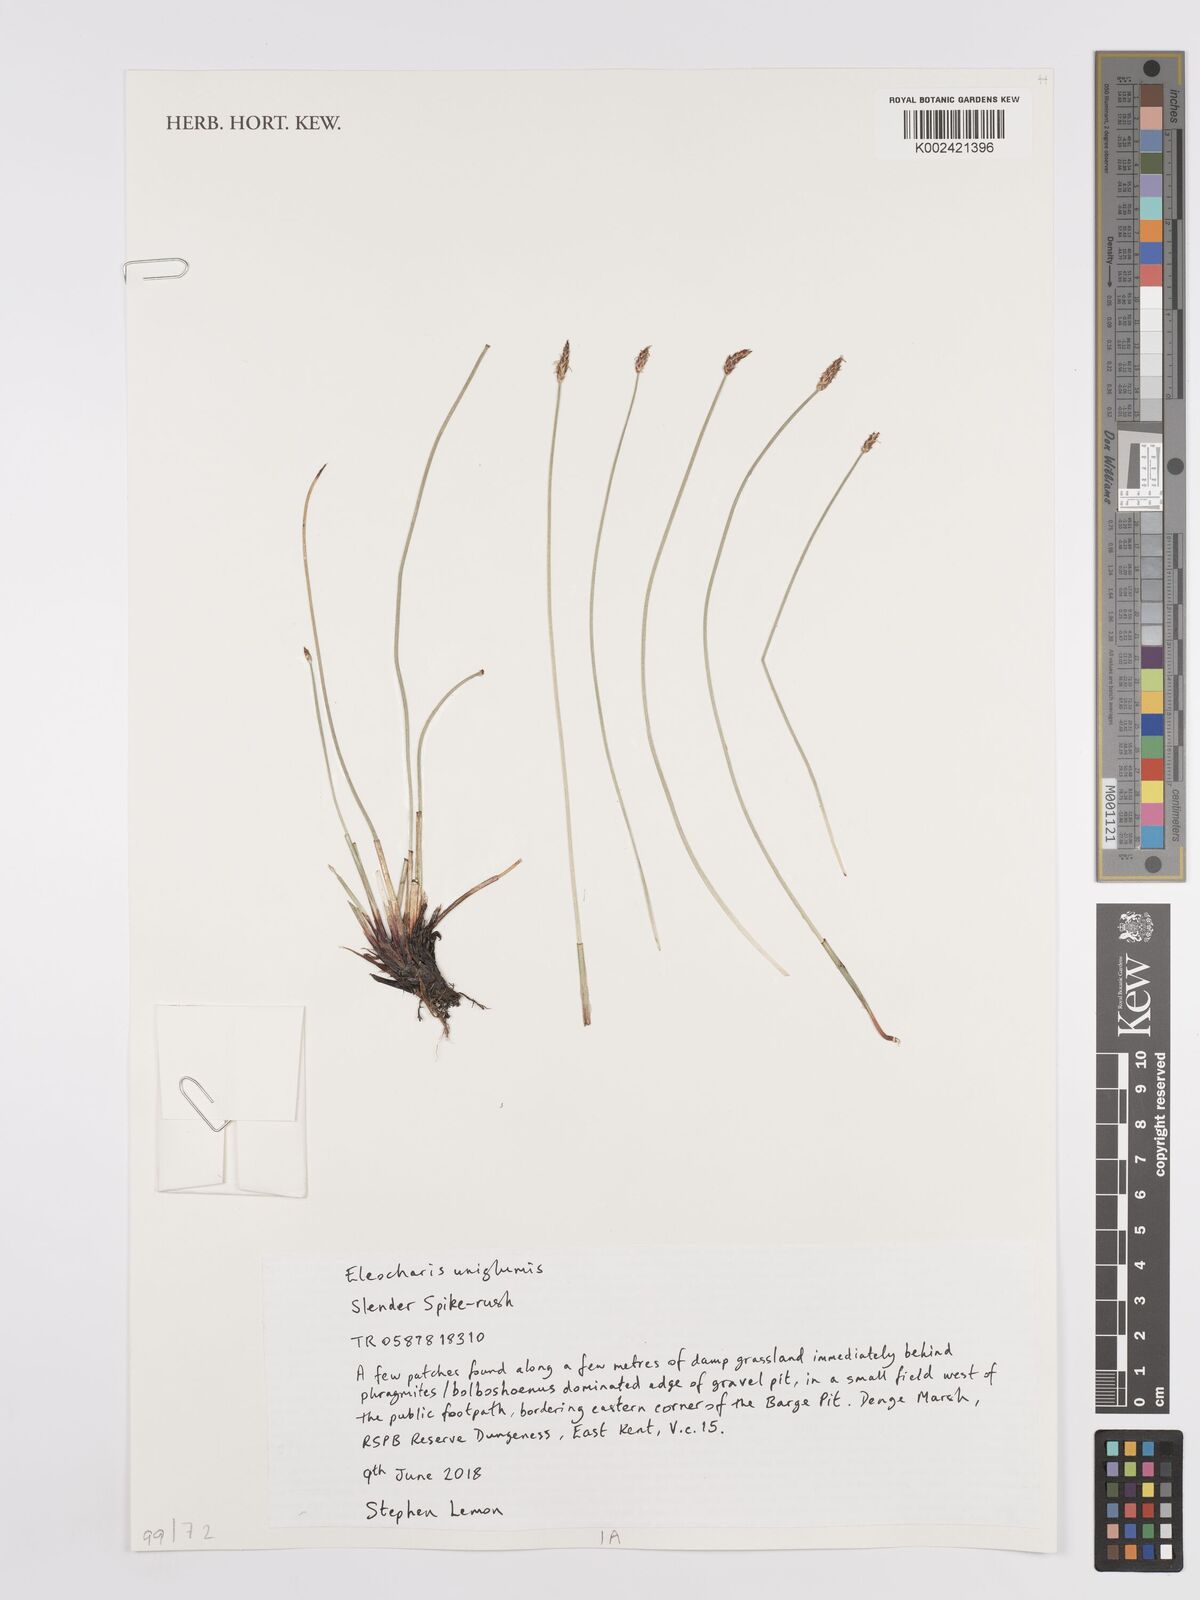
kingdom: Plantae
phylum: Tracheophyta
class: Liliopsida
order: Poales
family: Cyperaceae
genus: Eleocharis
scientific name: Eleocharis uniglumis
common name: Slender spike-rush
